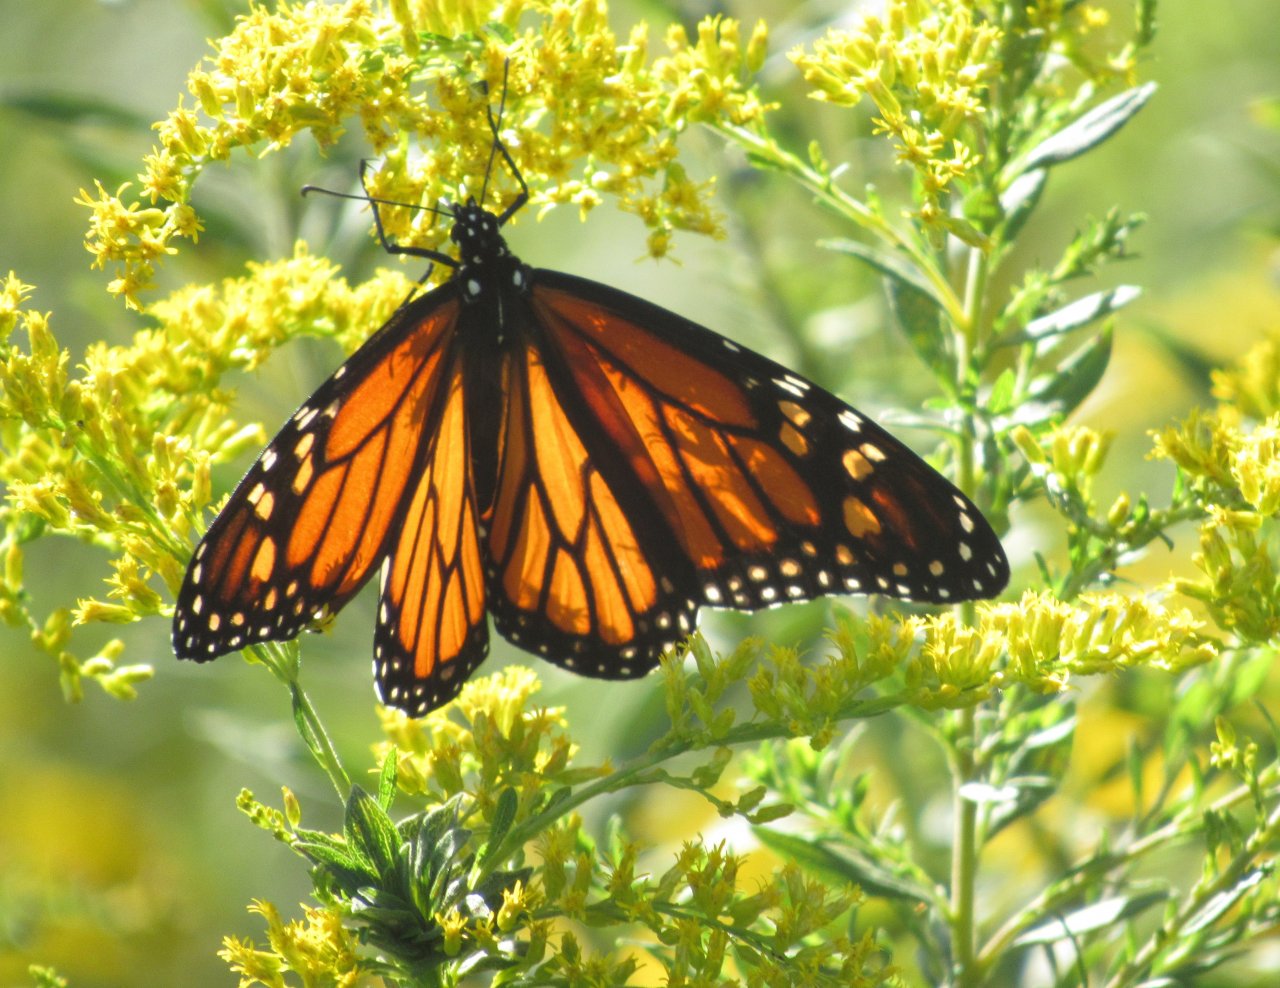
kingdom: Animalia
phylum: Arthropoda
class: Insecta
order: Lepidoptera
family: Nymphalidae
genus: Danaus
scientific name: Danaus plexippus
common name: Monarch
